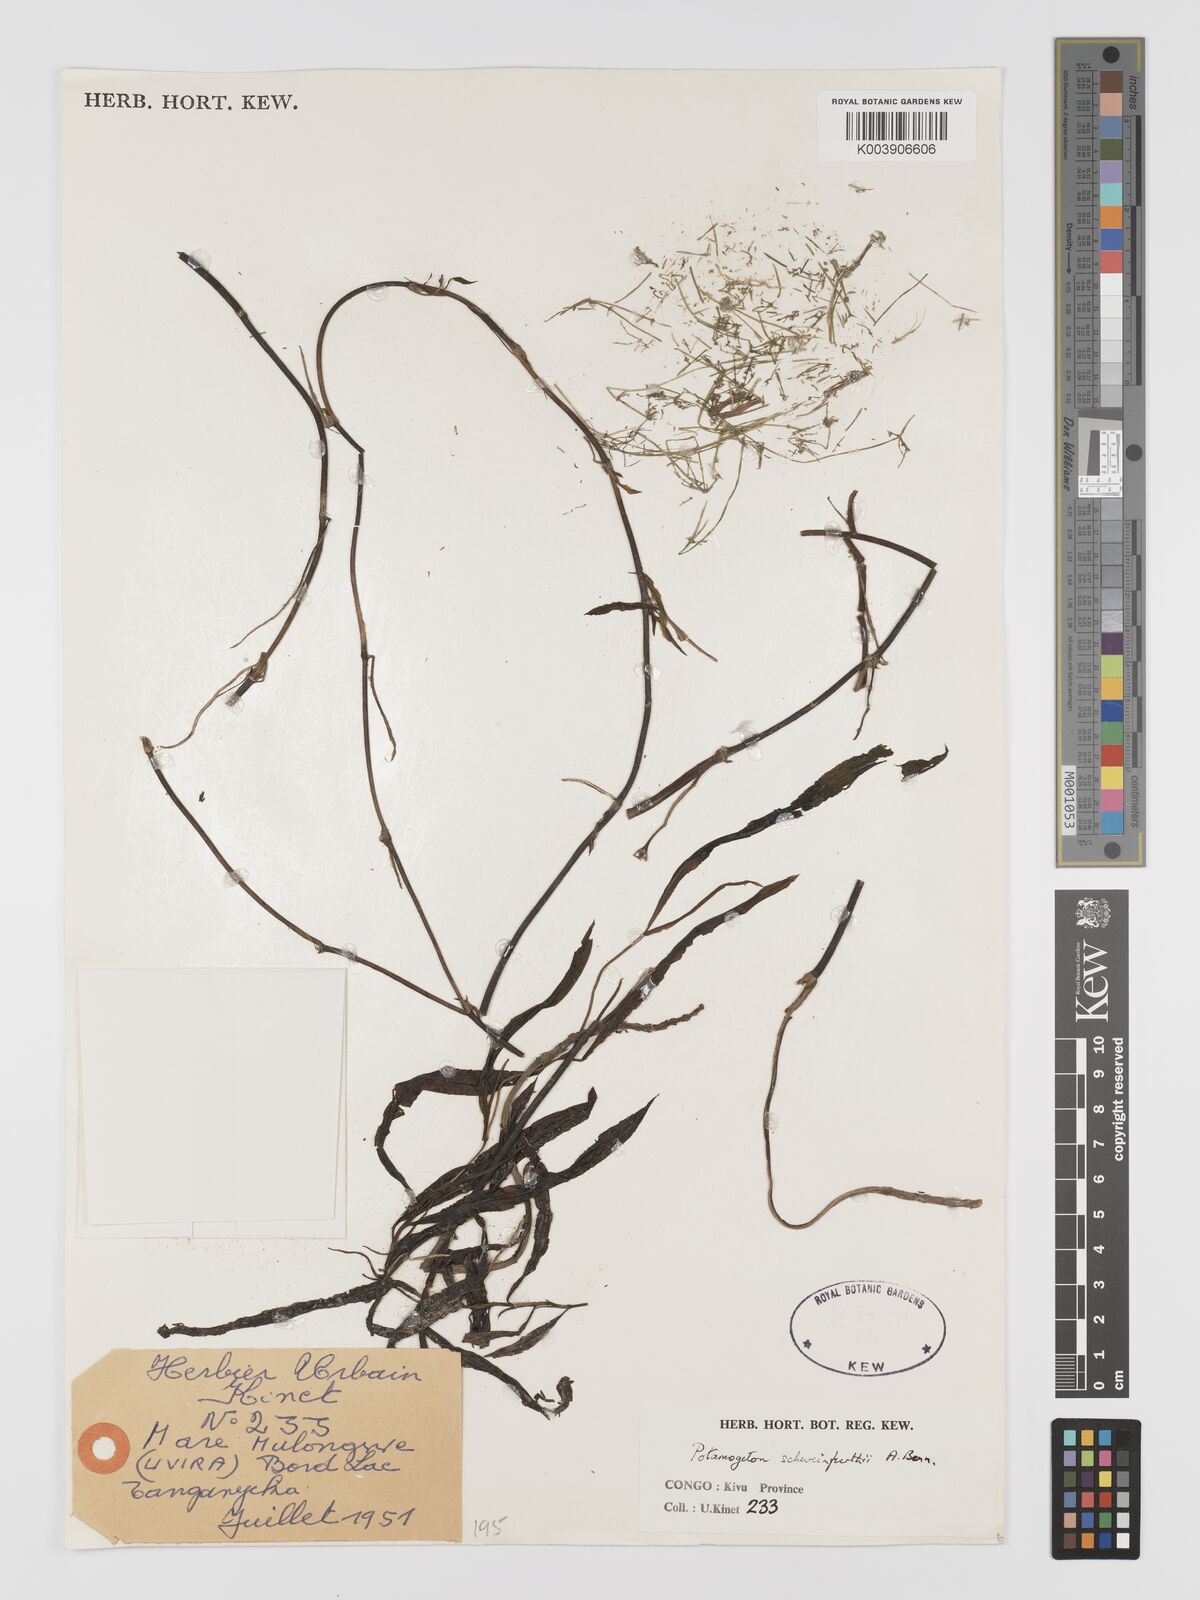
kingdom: Plantae
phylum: Tracheophyta
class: Liliopsida
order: Alismatales
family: Potamogetonaceae
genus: Potamogeton
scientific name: Potamogeton schweinfurthii
